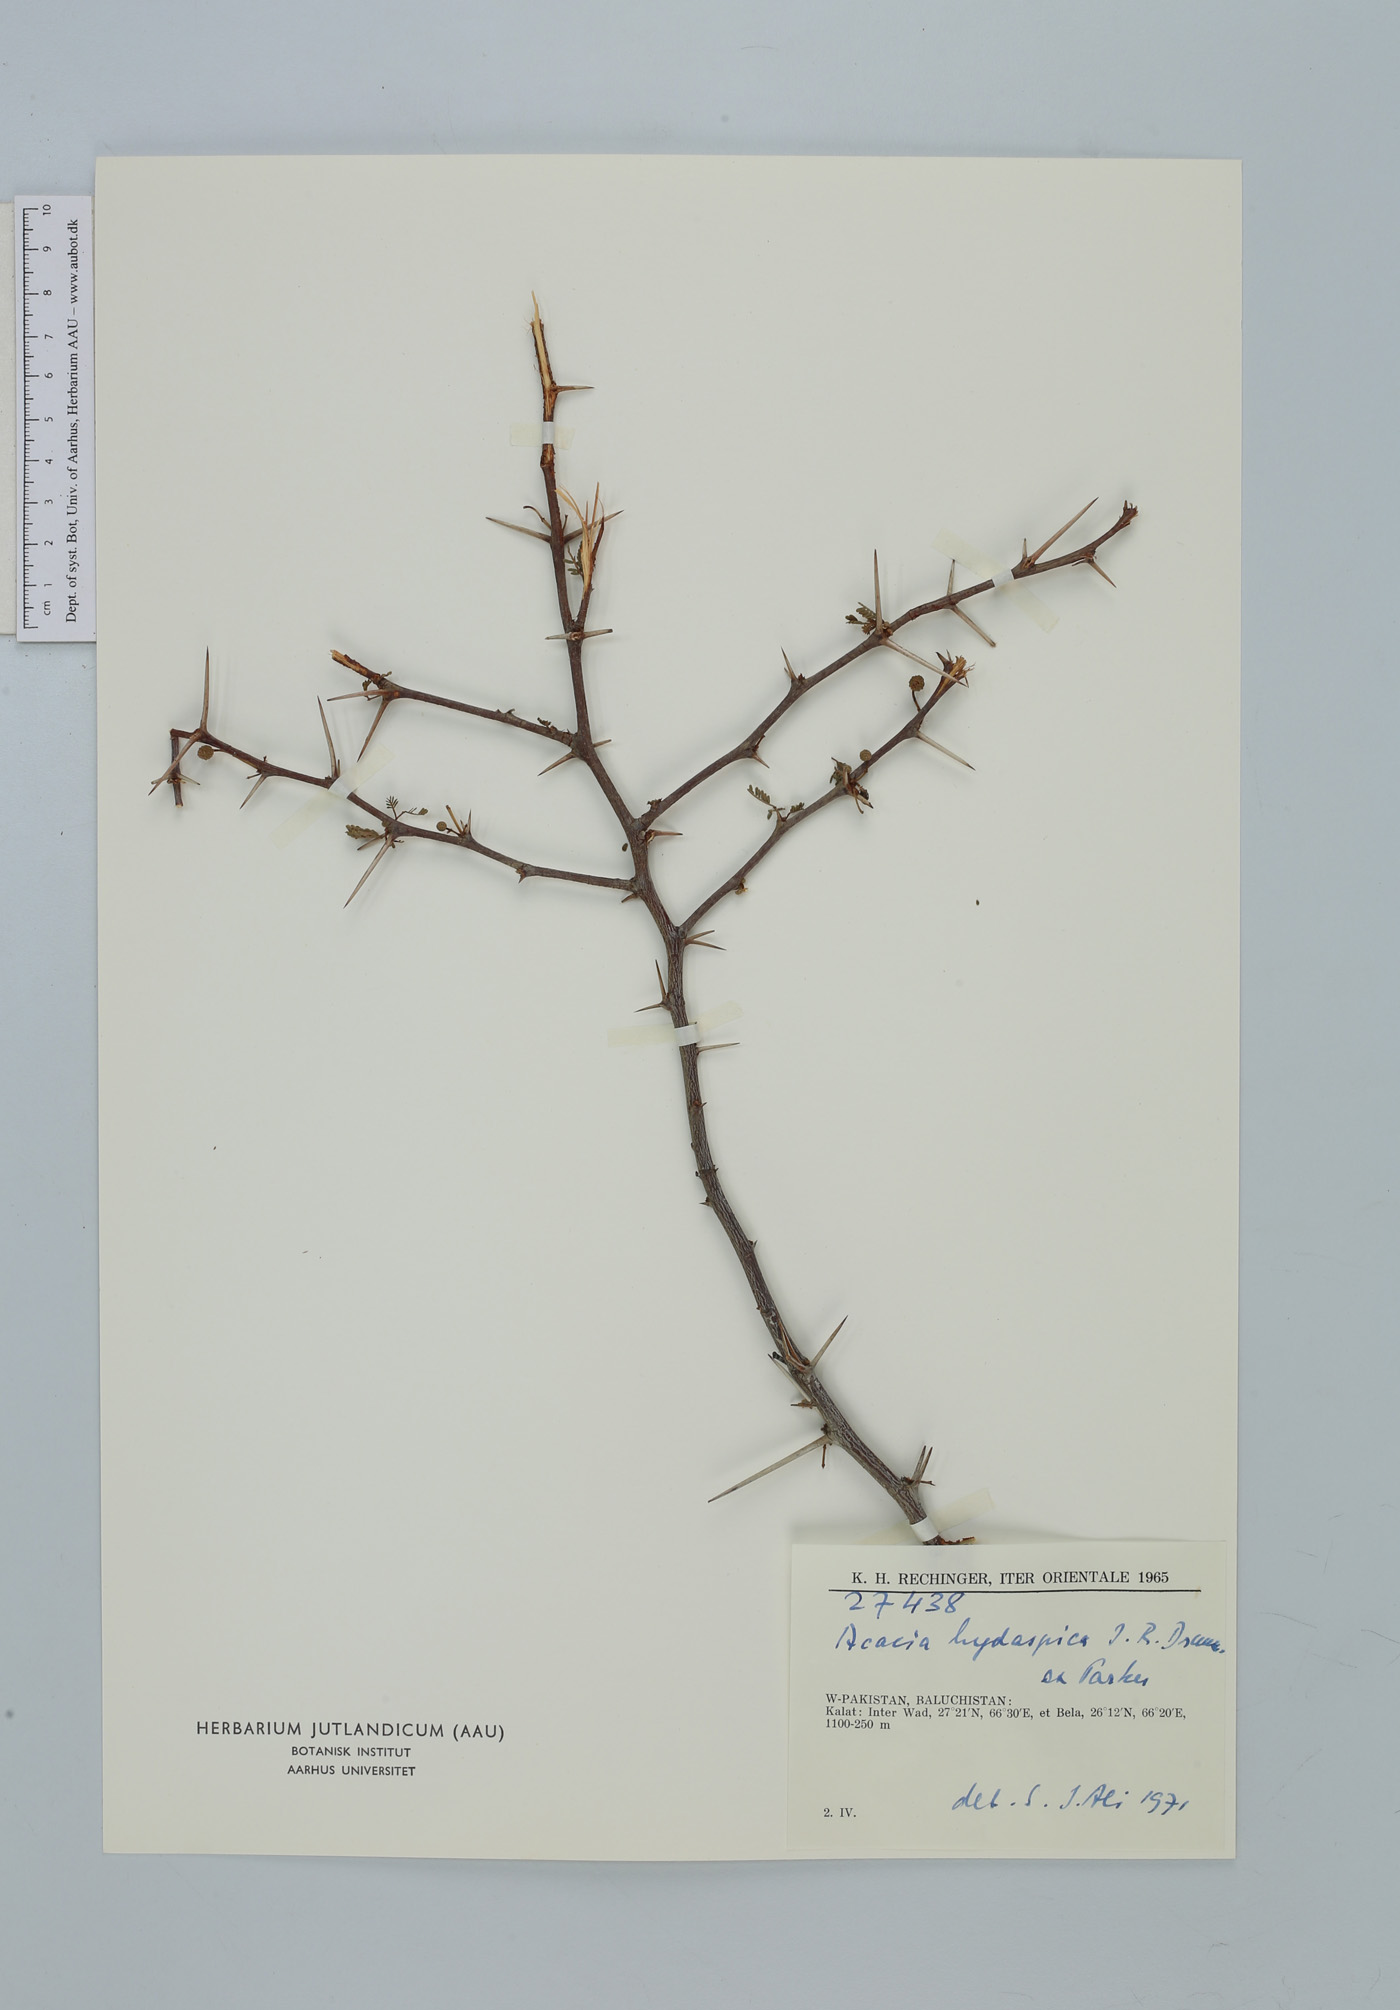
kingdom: Plantae
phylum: Tracheophyta
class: Magnoliopsida
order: Fabales
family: Fabaceae
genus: Vachellia
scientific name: Vachellia hydaspica
